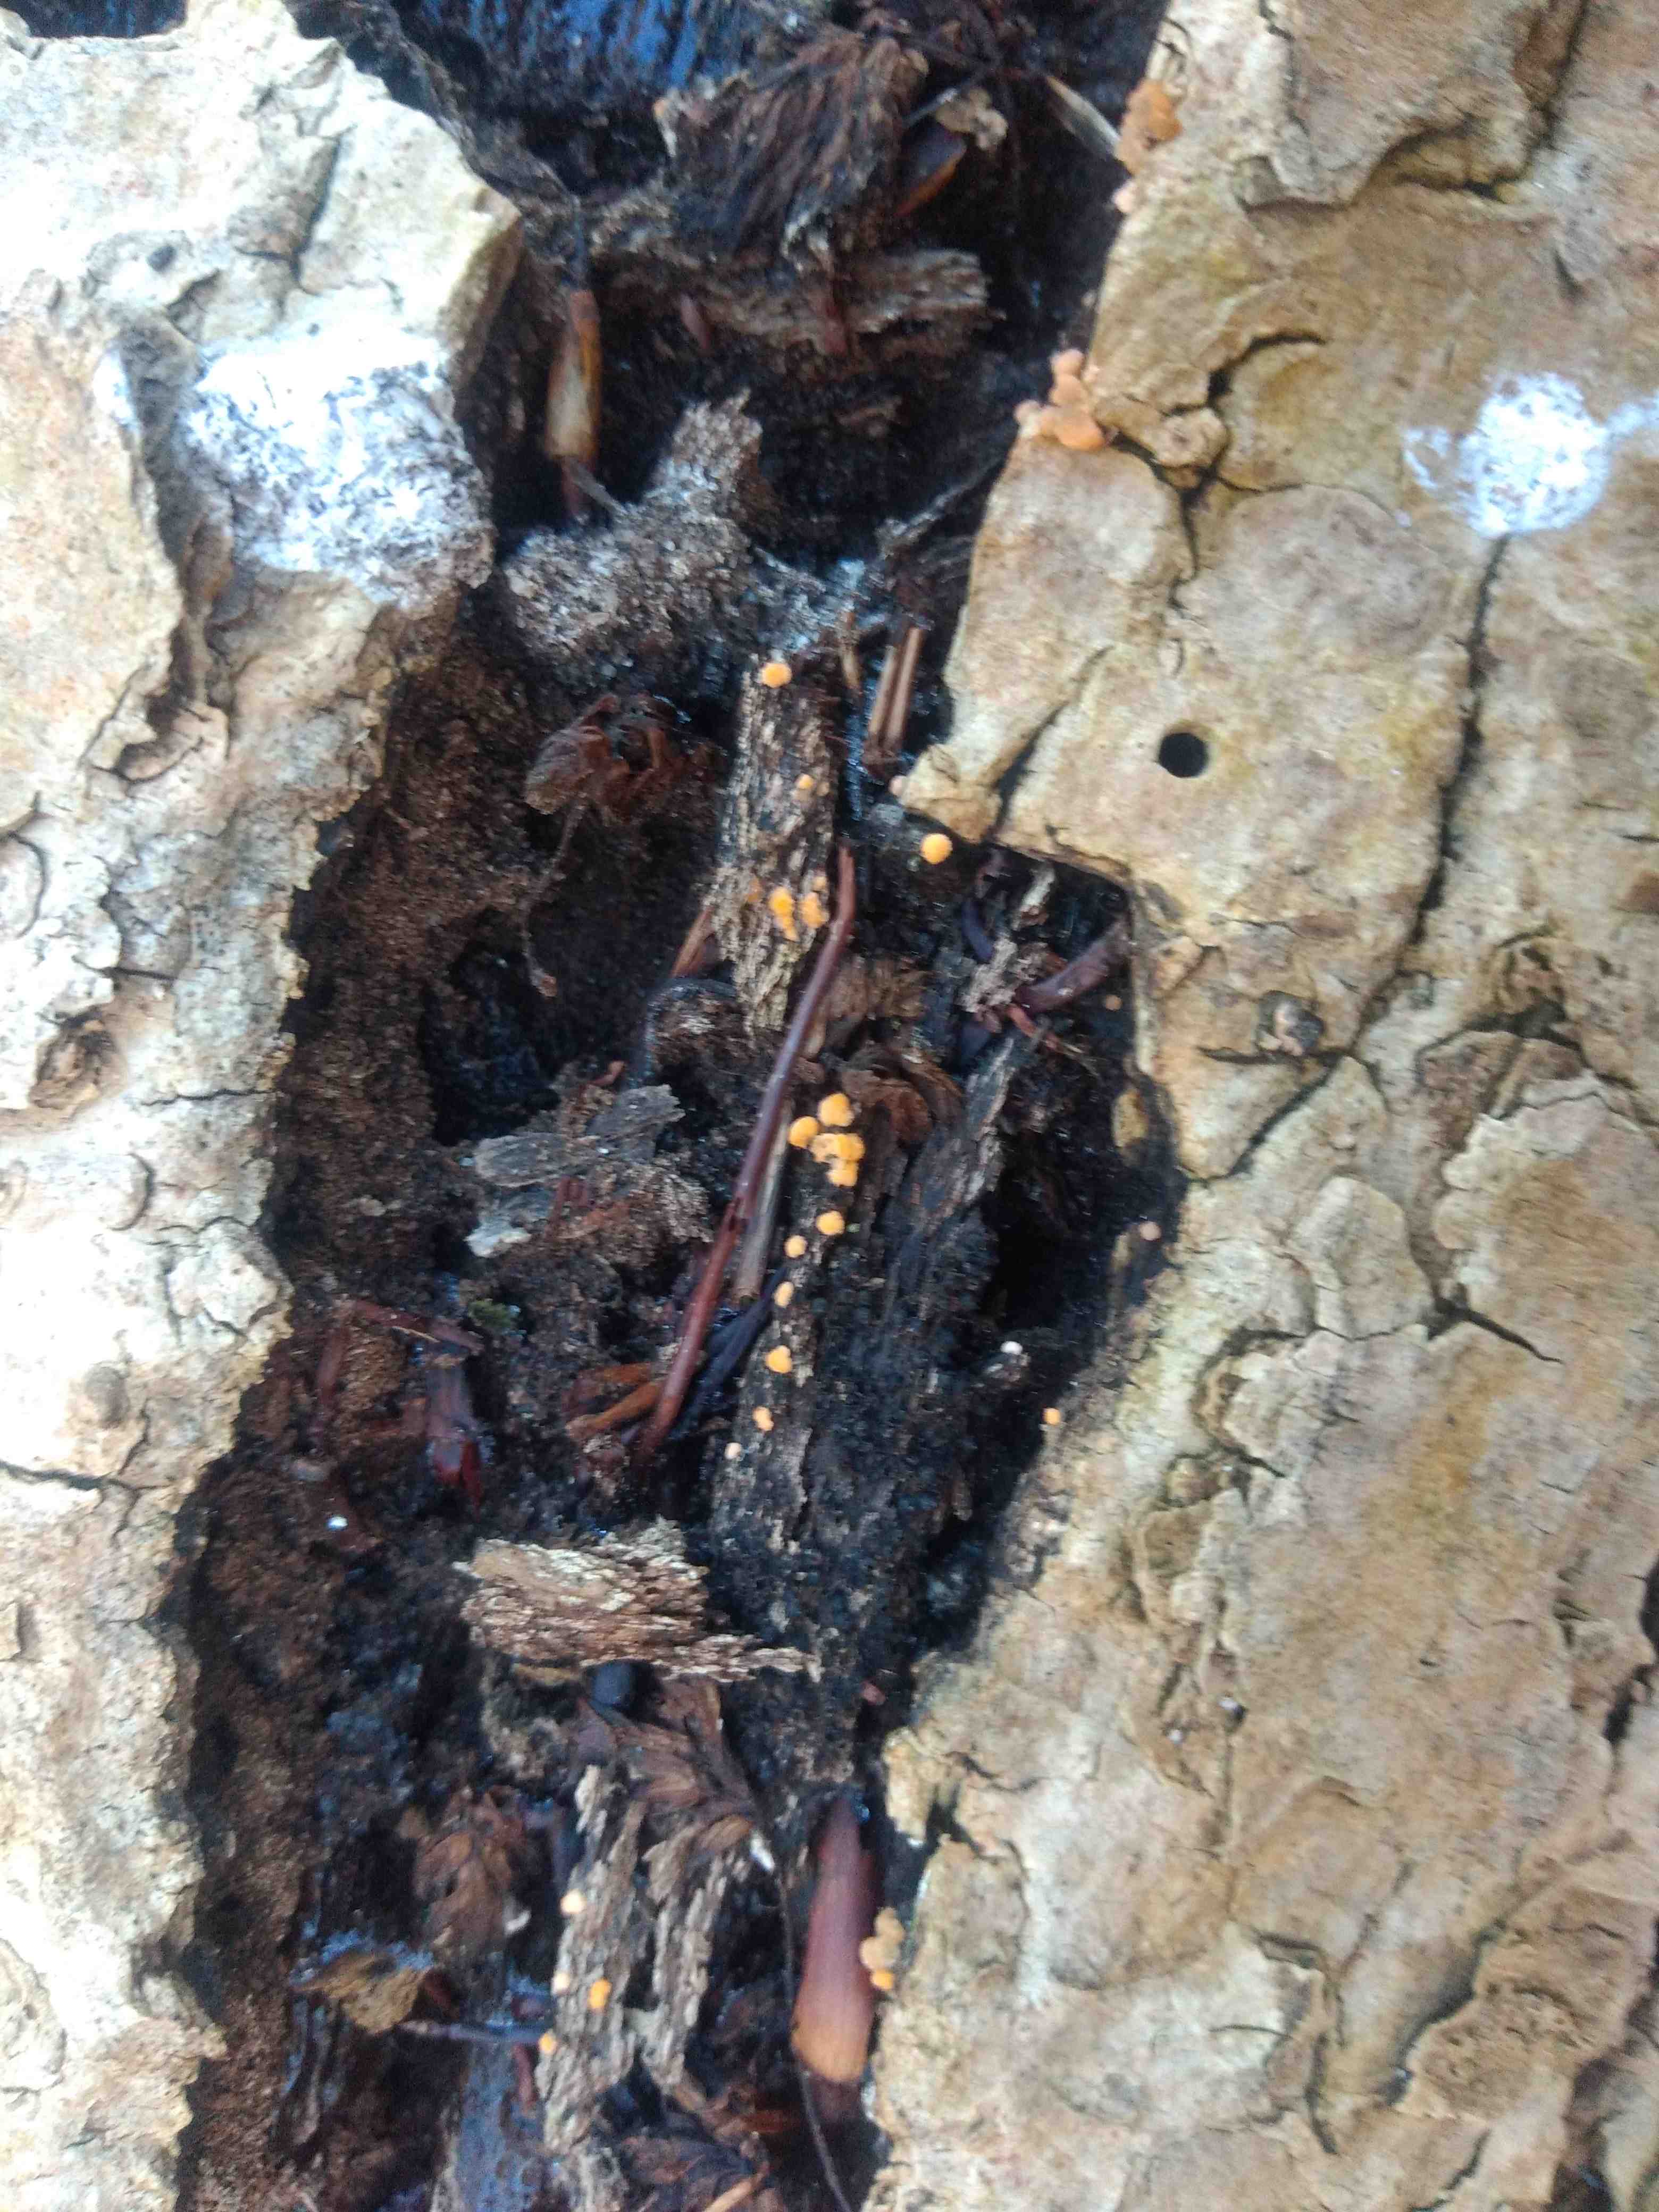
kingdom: Fungi
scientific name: Fungi
